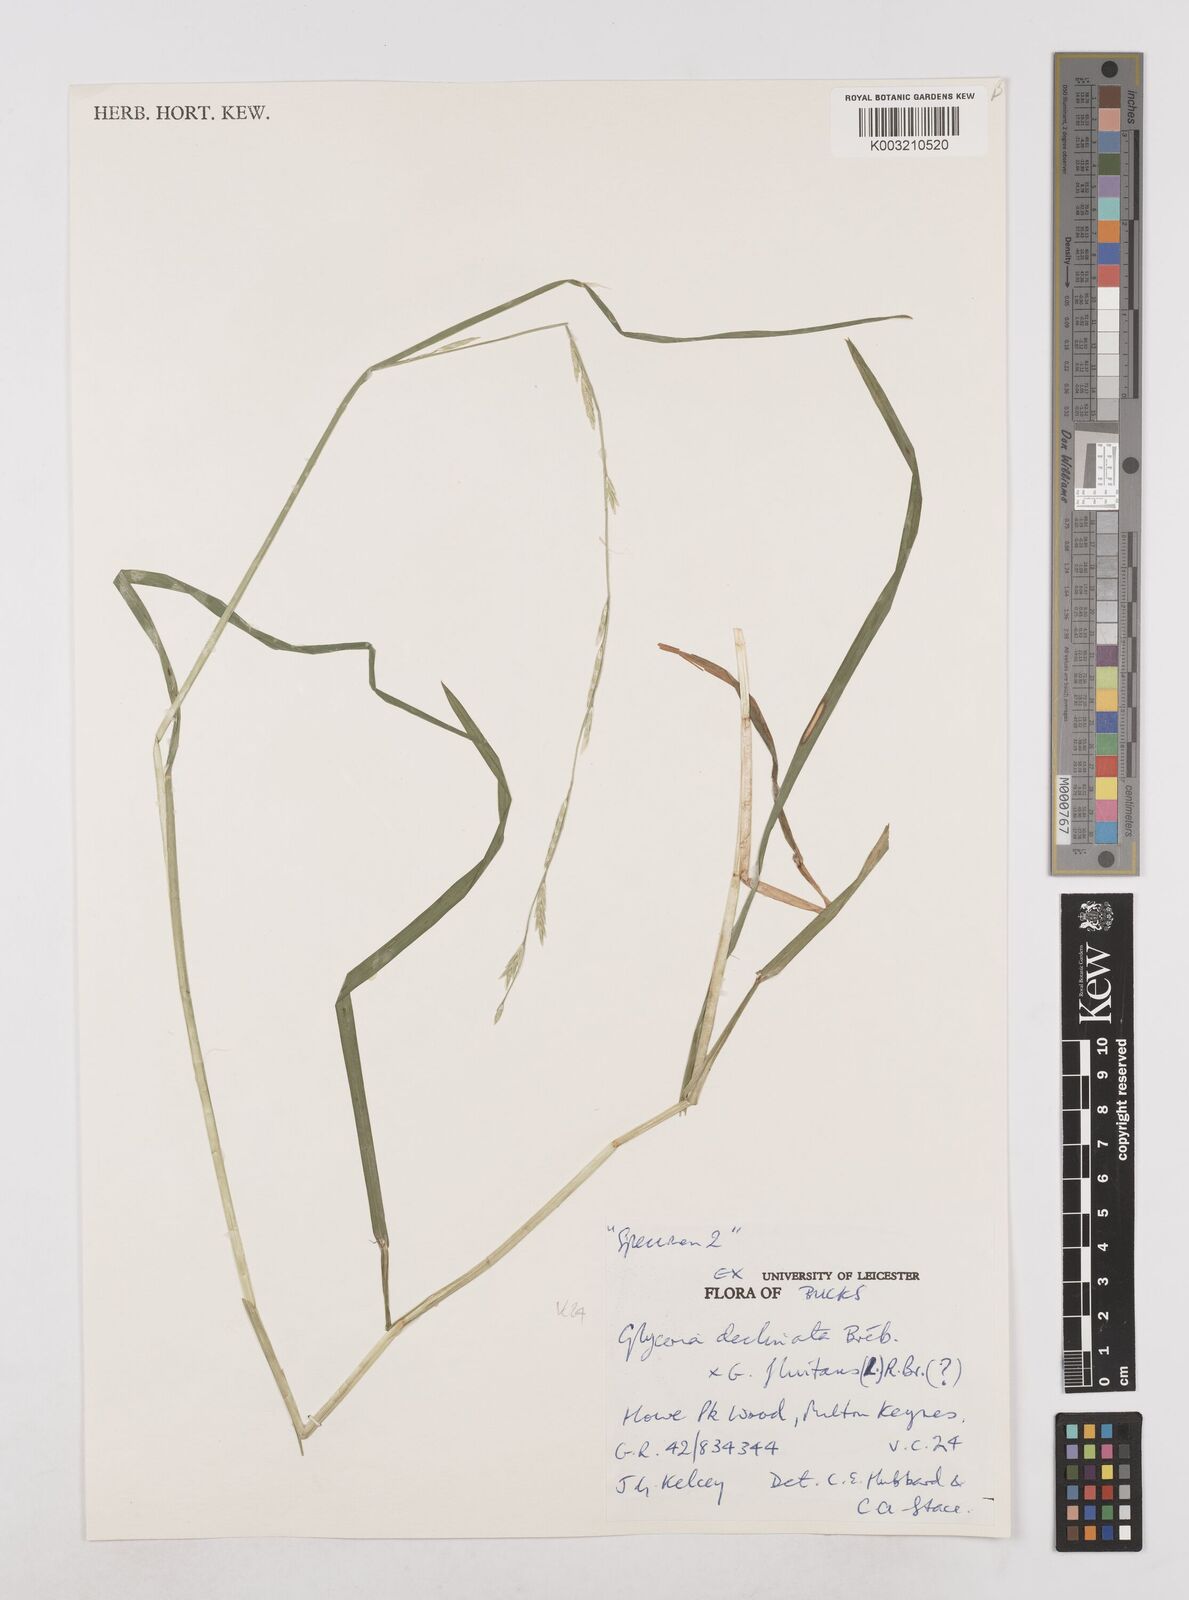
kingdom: Plantae
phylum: Tracheophyta
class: Liliopsida
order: Poales
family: Poaceae
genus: Glyceria
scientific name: Glyceria declinata
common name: Small sweet-grass
